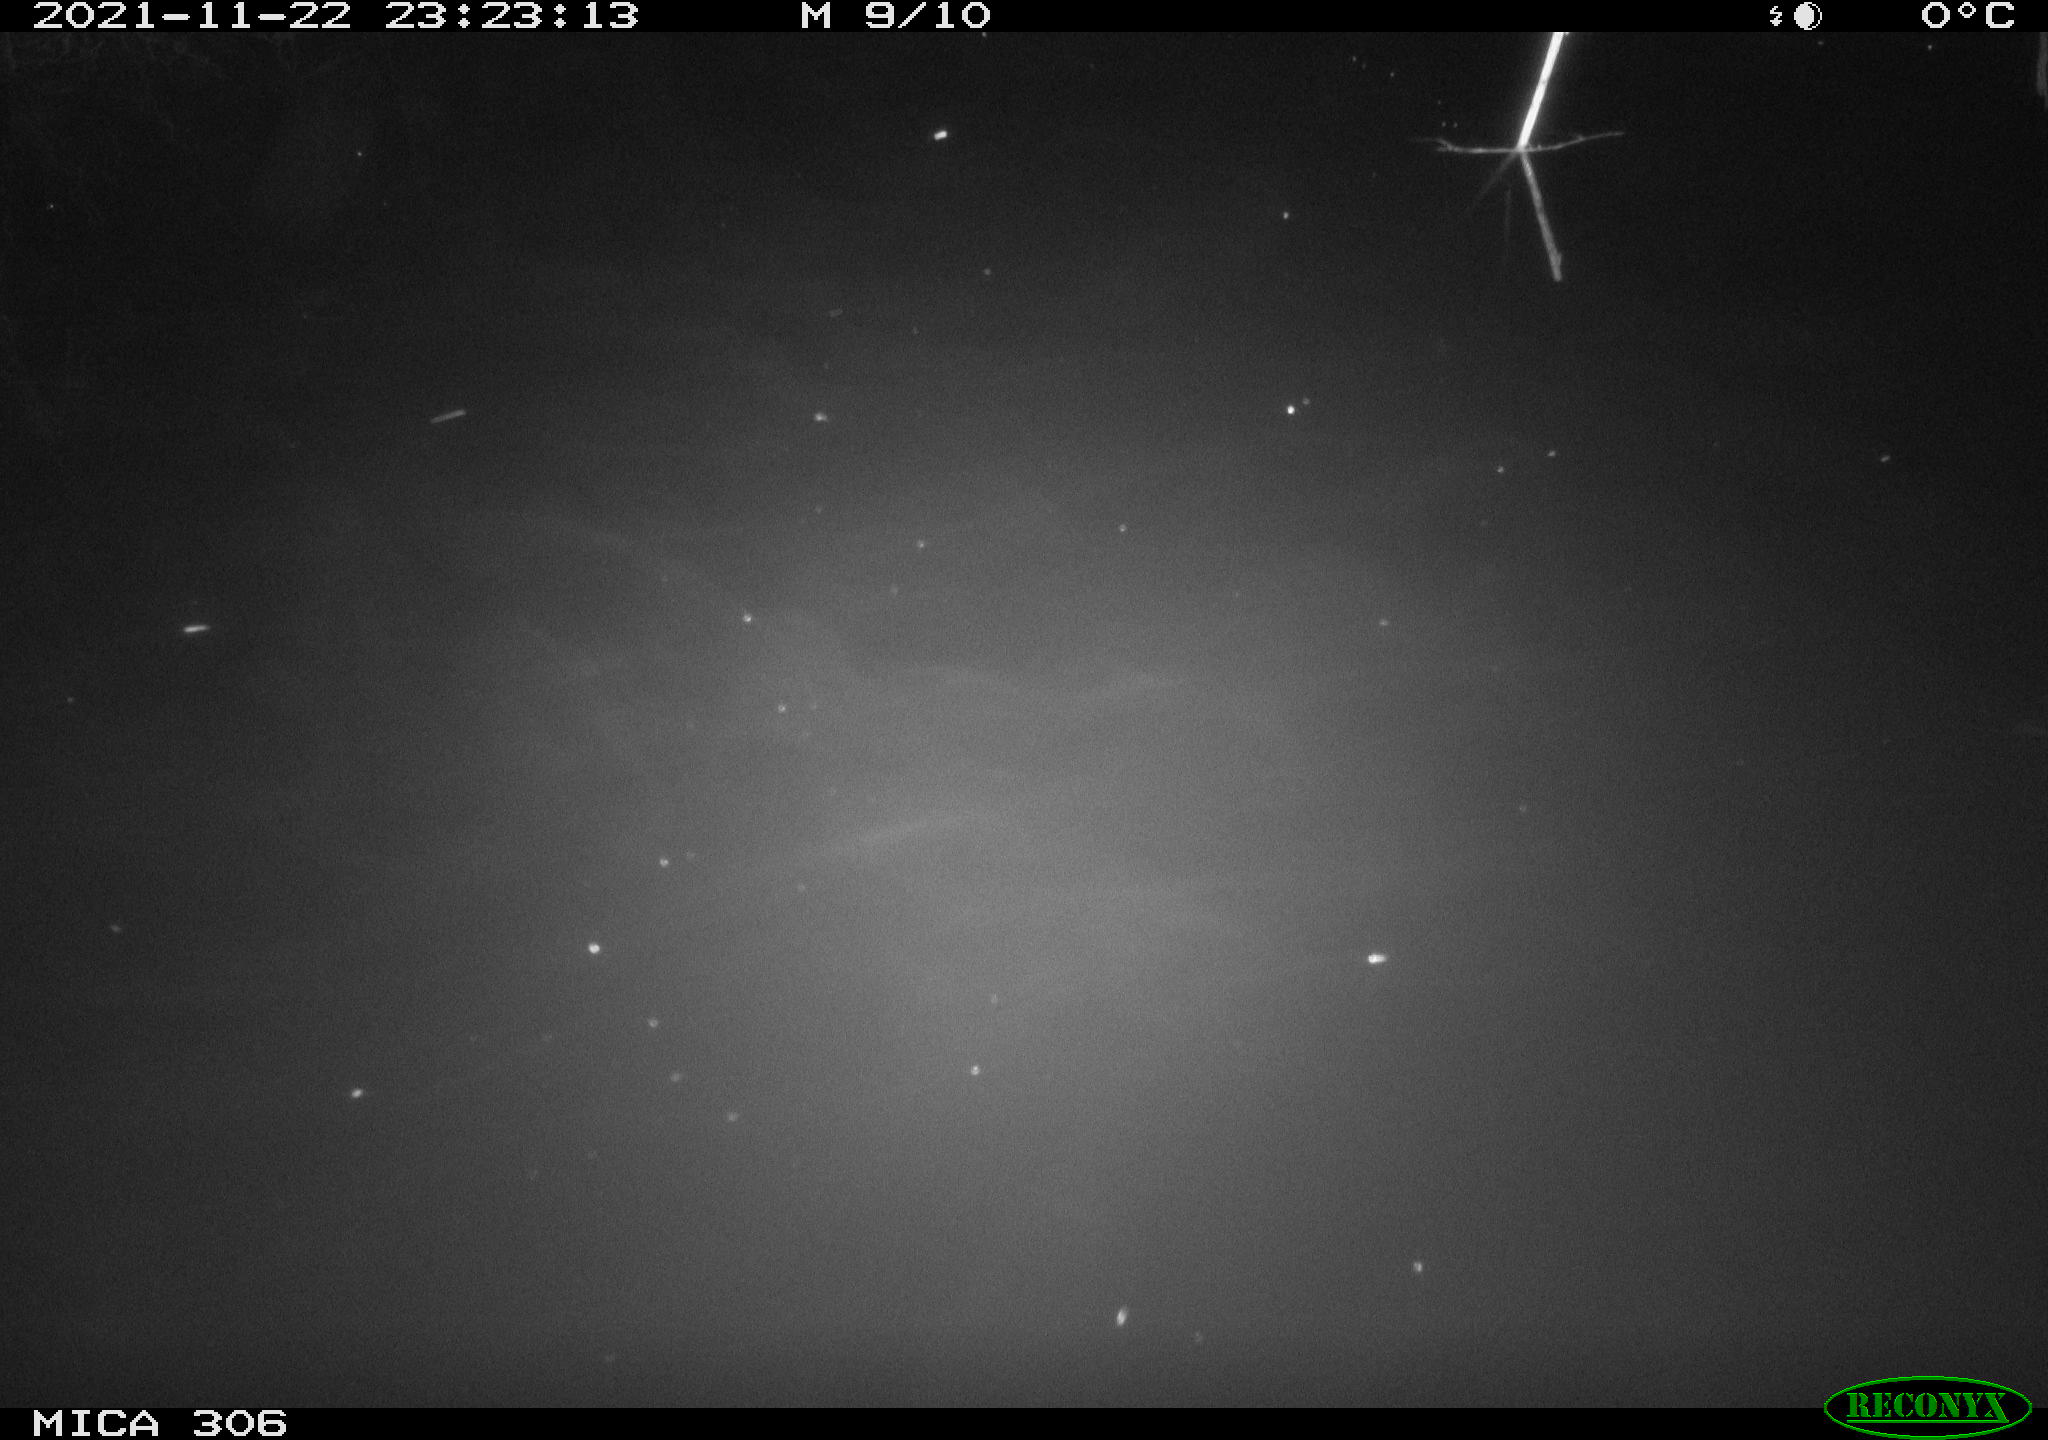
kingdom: Animalia
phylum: Chordata
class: Aves
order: Gruiformes
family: Rallidae
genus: Fulica
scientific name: Fulica atra
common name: Eurasian coot
